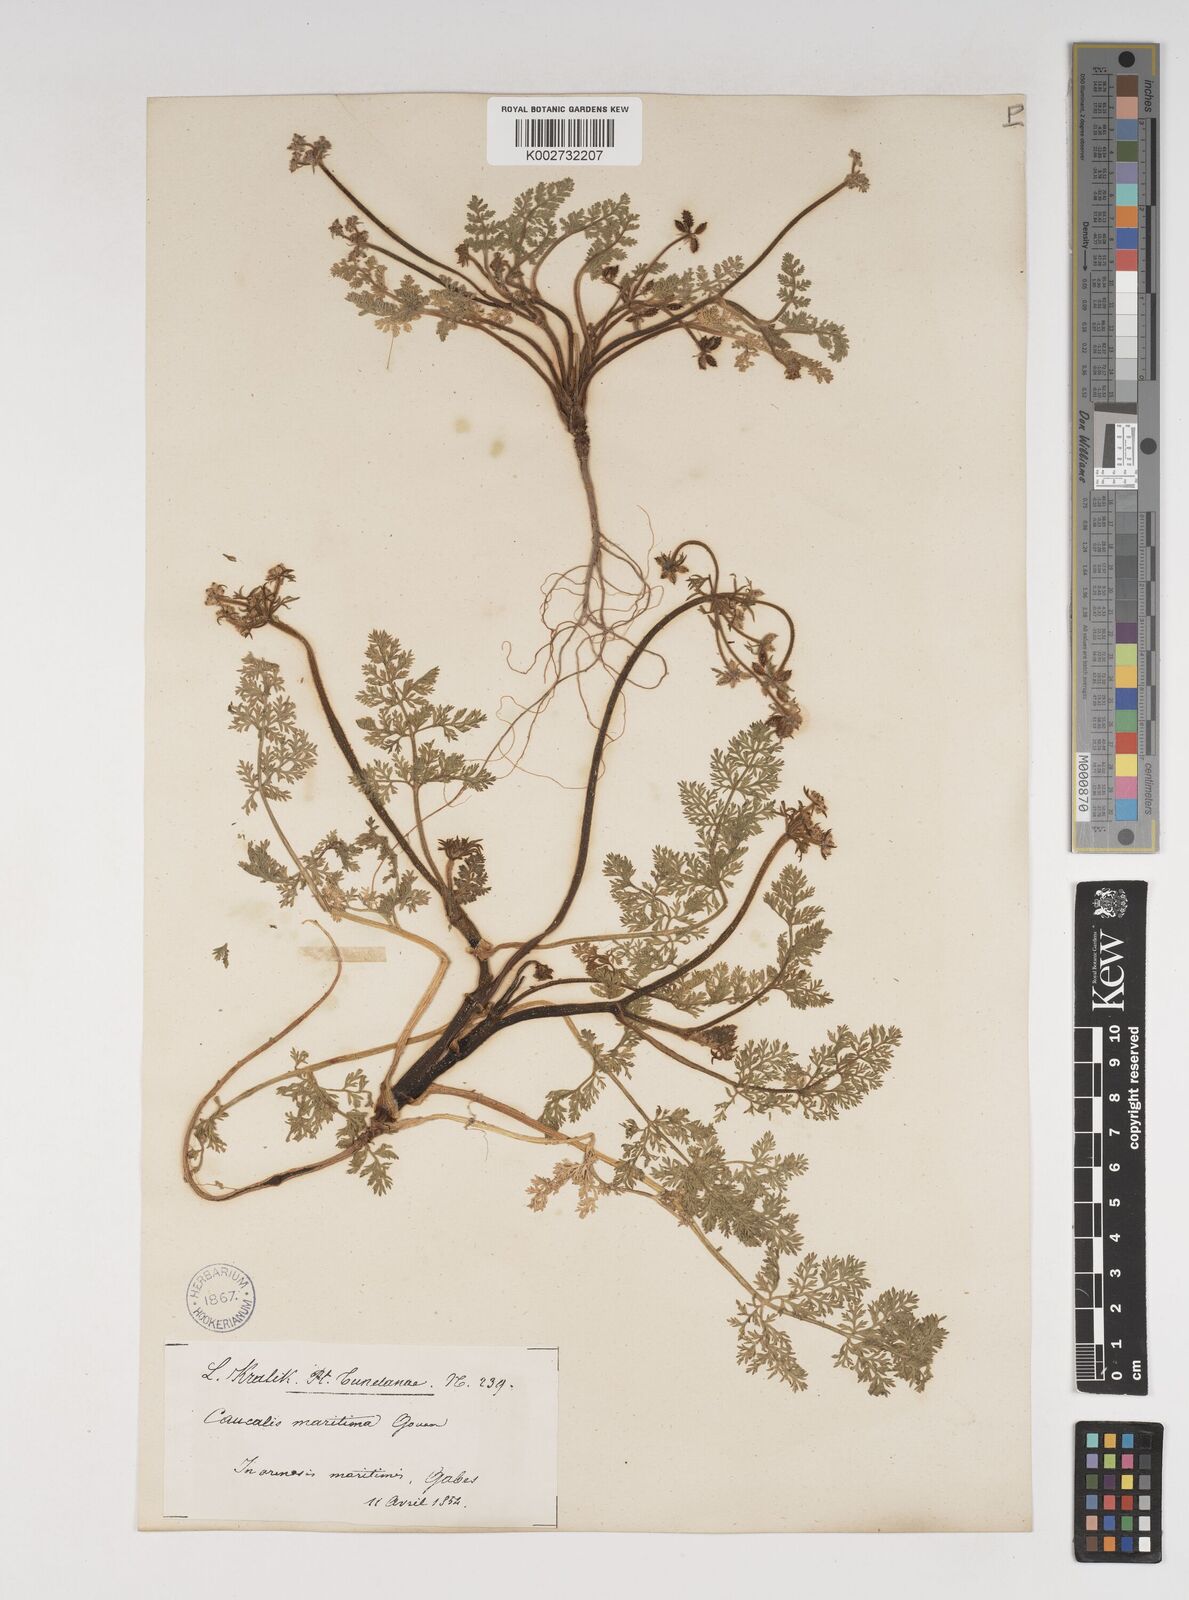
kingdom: Plantae
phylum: Tracheophyta
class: Magnoliopsida
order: Apiales
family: Apiaceae
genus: Daucus
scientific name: Daucus pumilus
